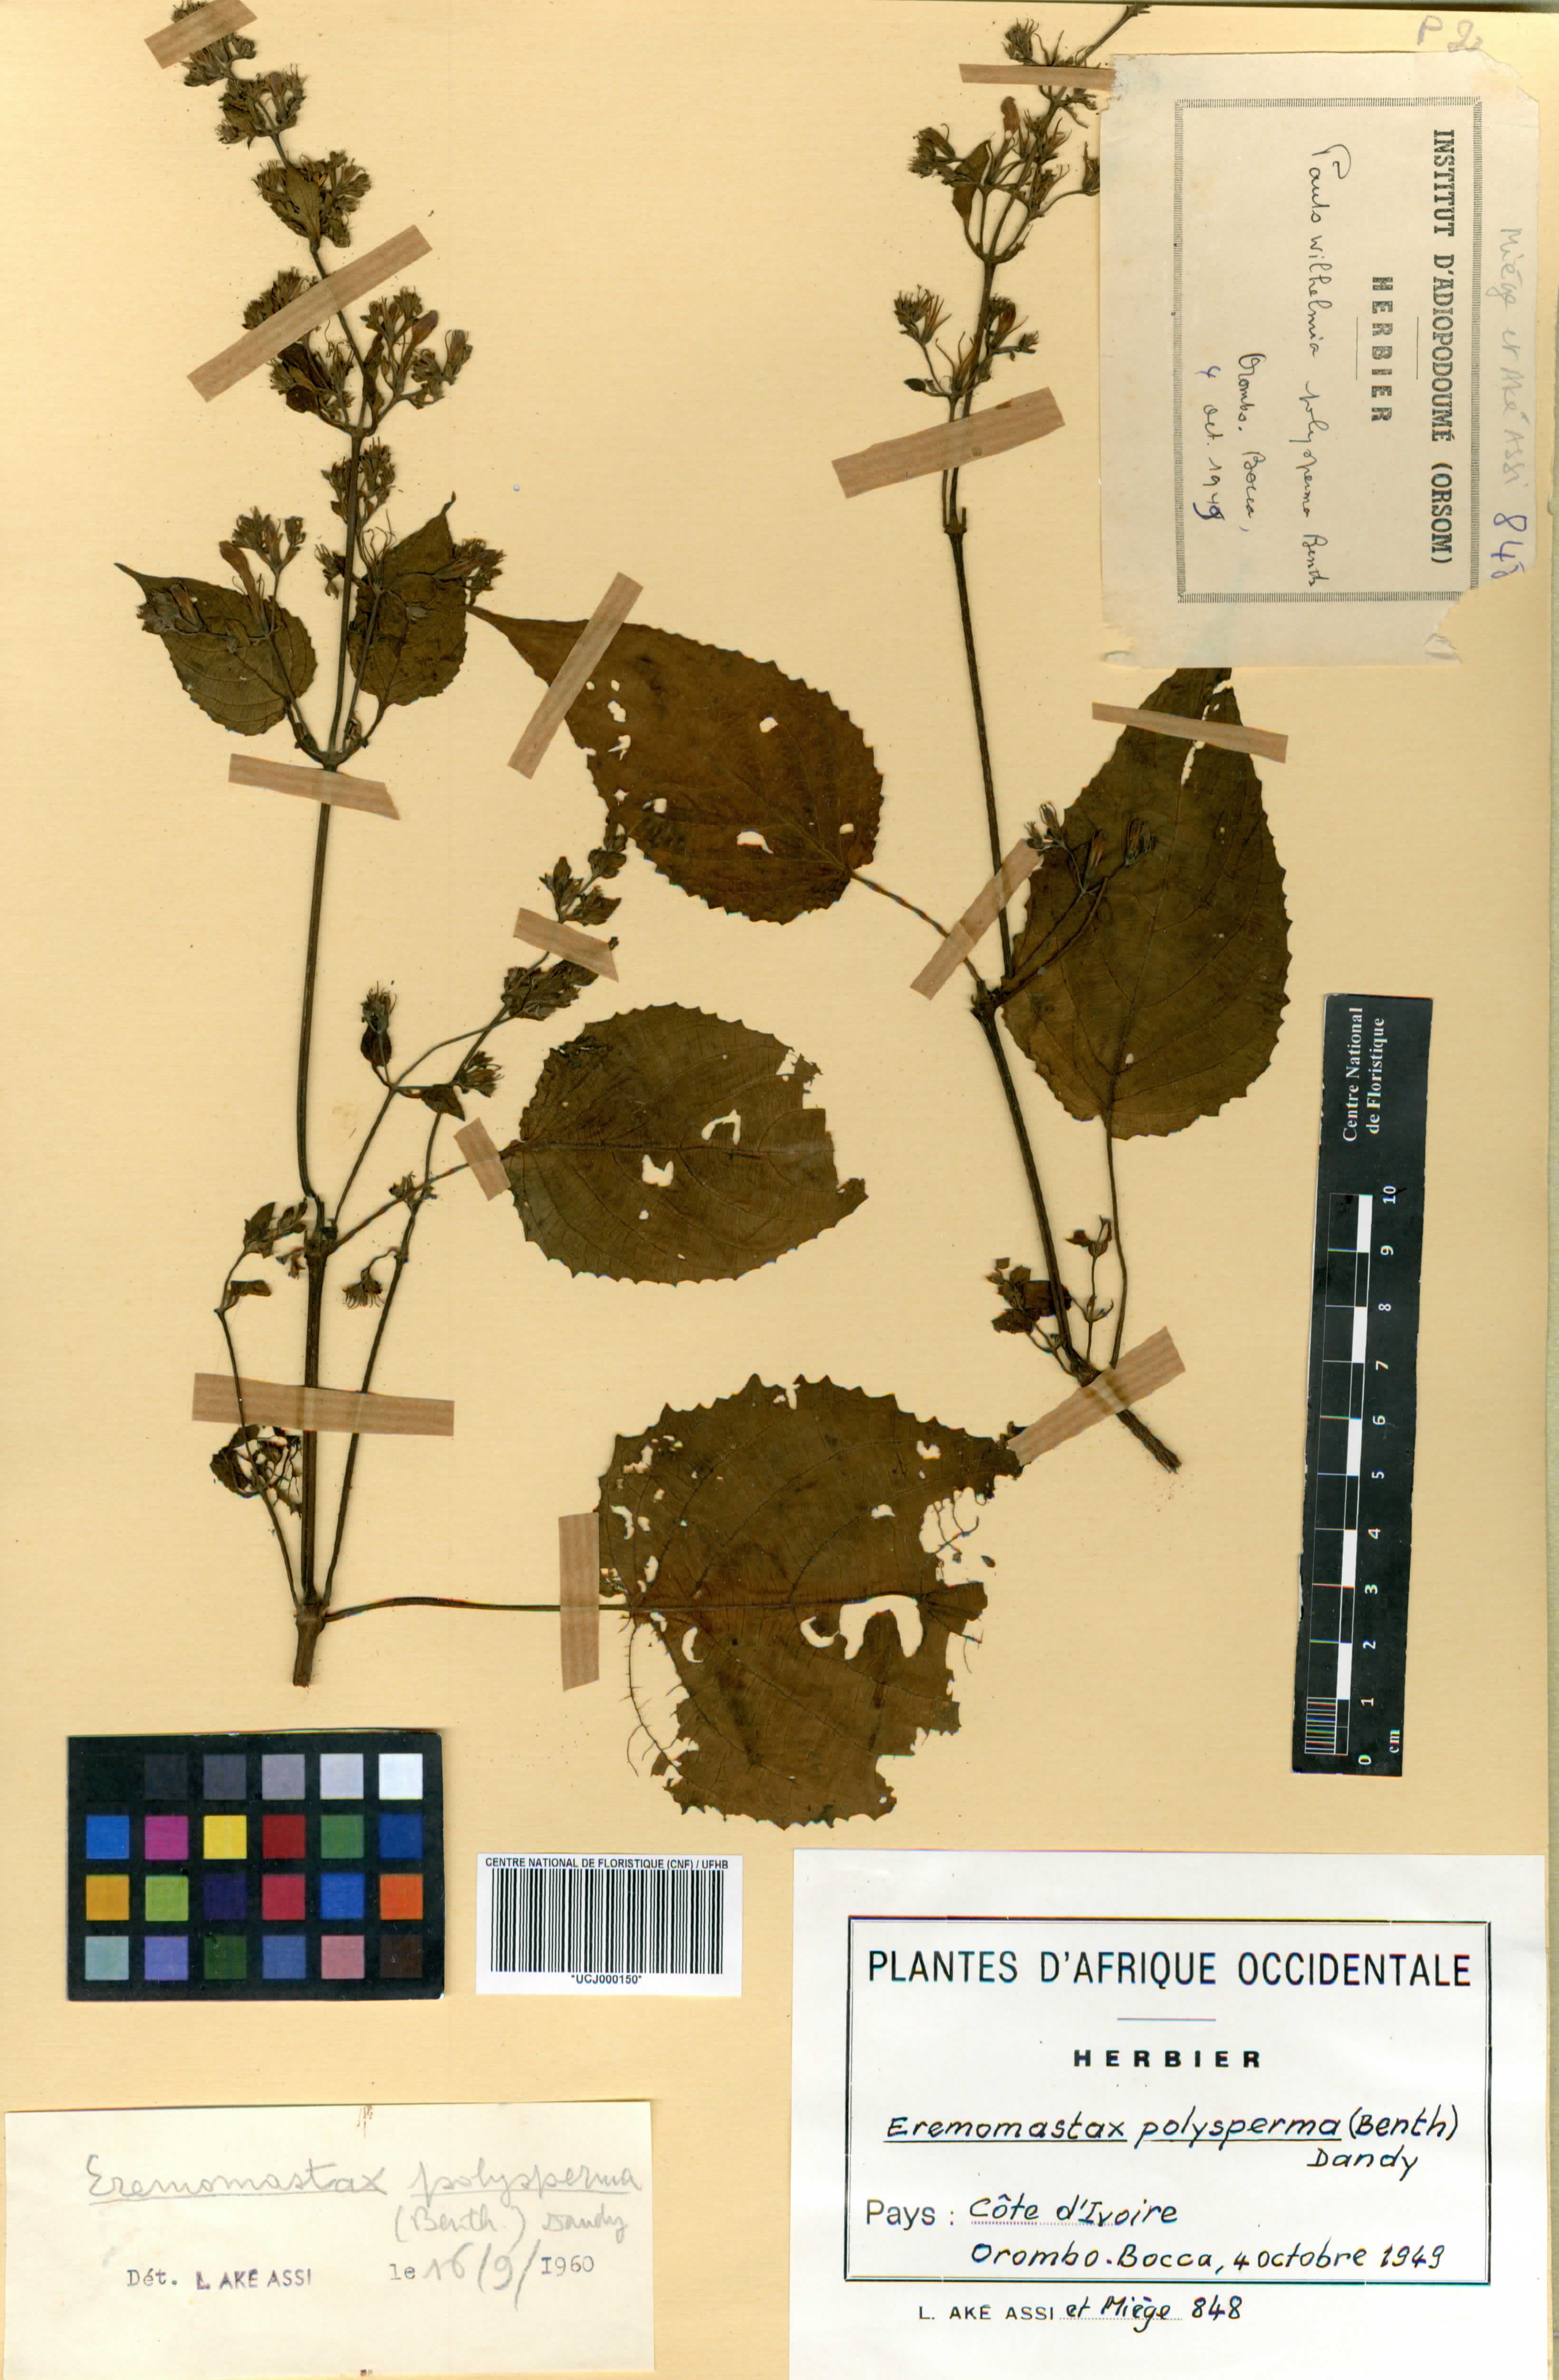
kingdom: Plantae
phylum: Tracheophyta
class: Magnoliopsida
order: Lamiales
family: Acanthaceae
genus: Eremomastax
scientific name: Eremomastax speciosa
